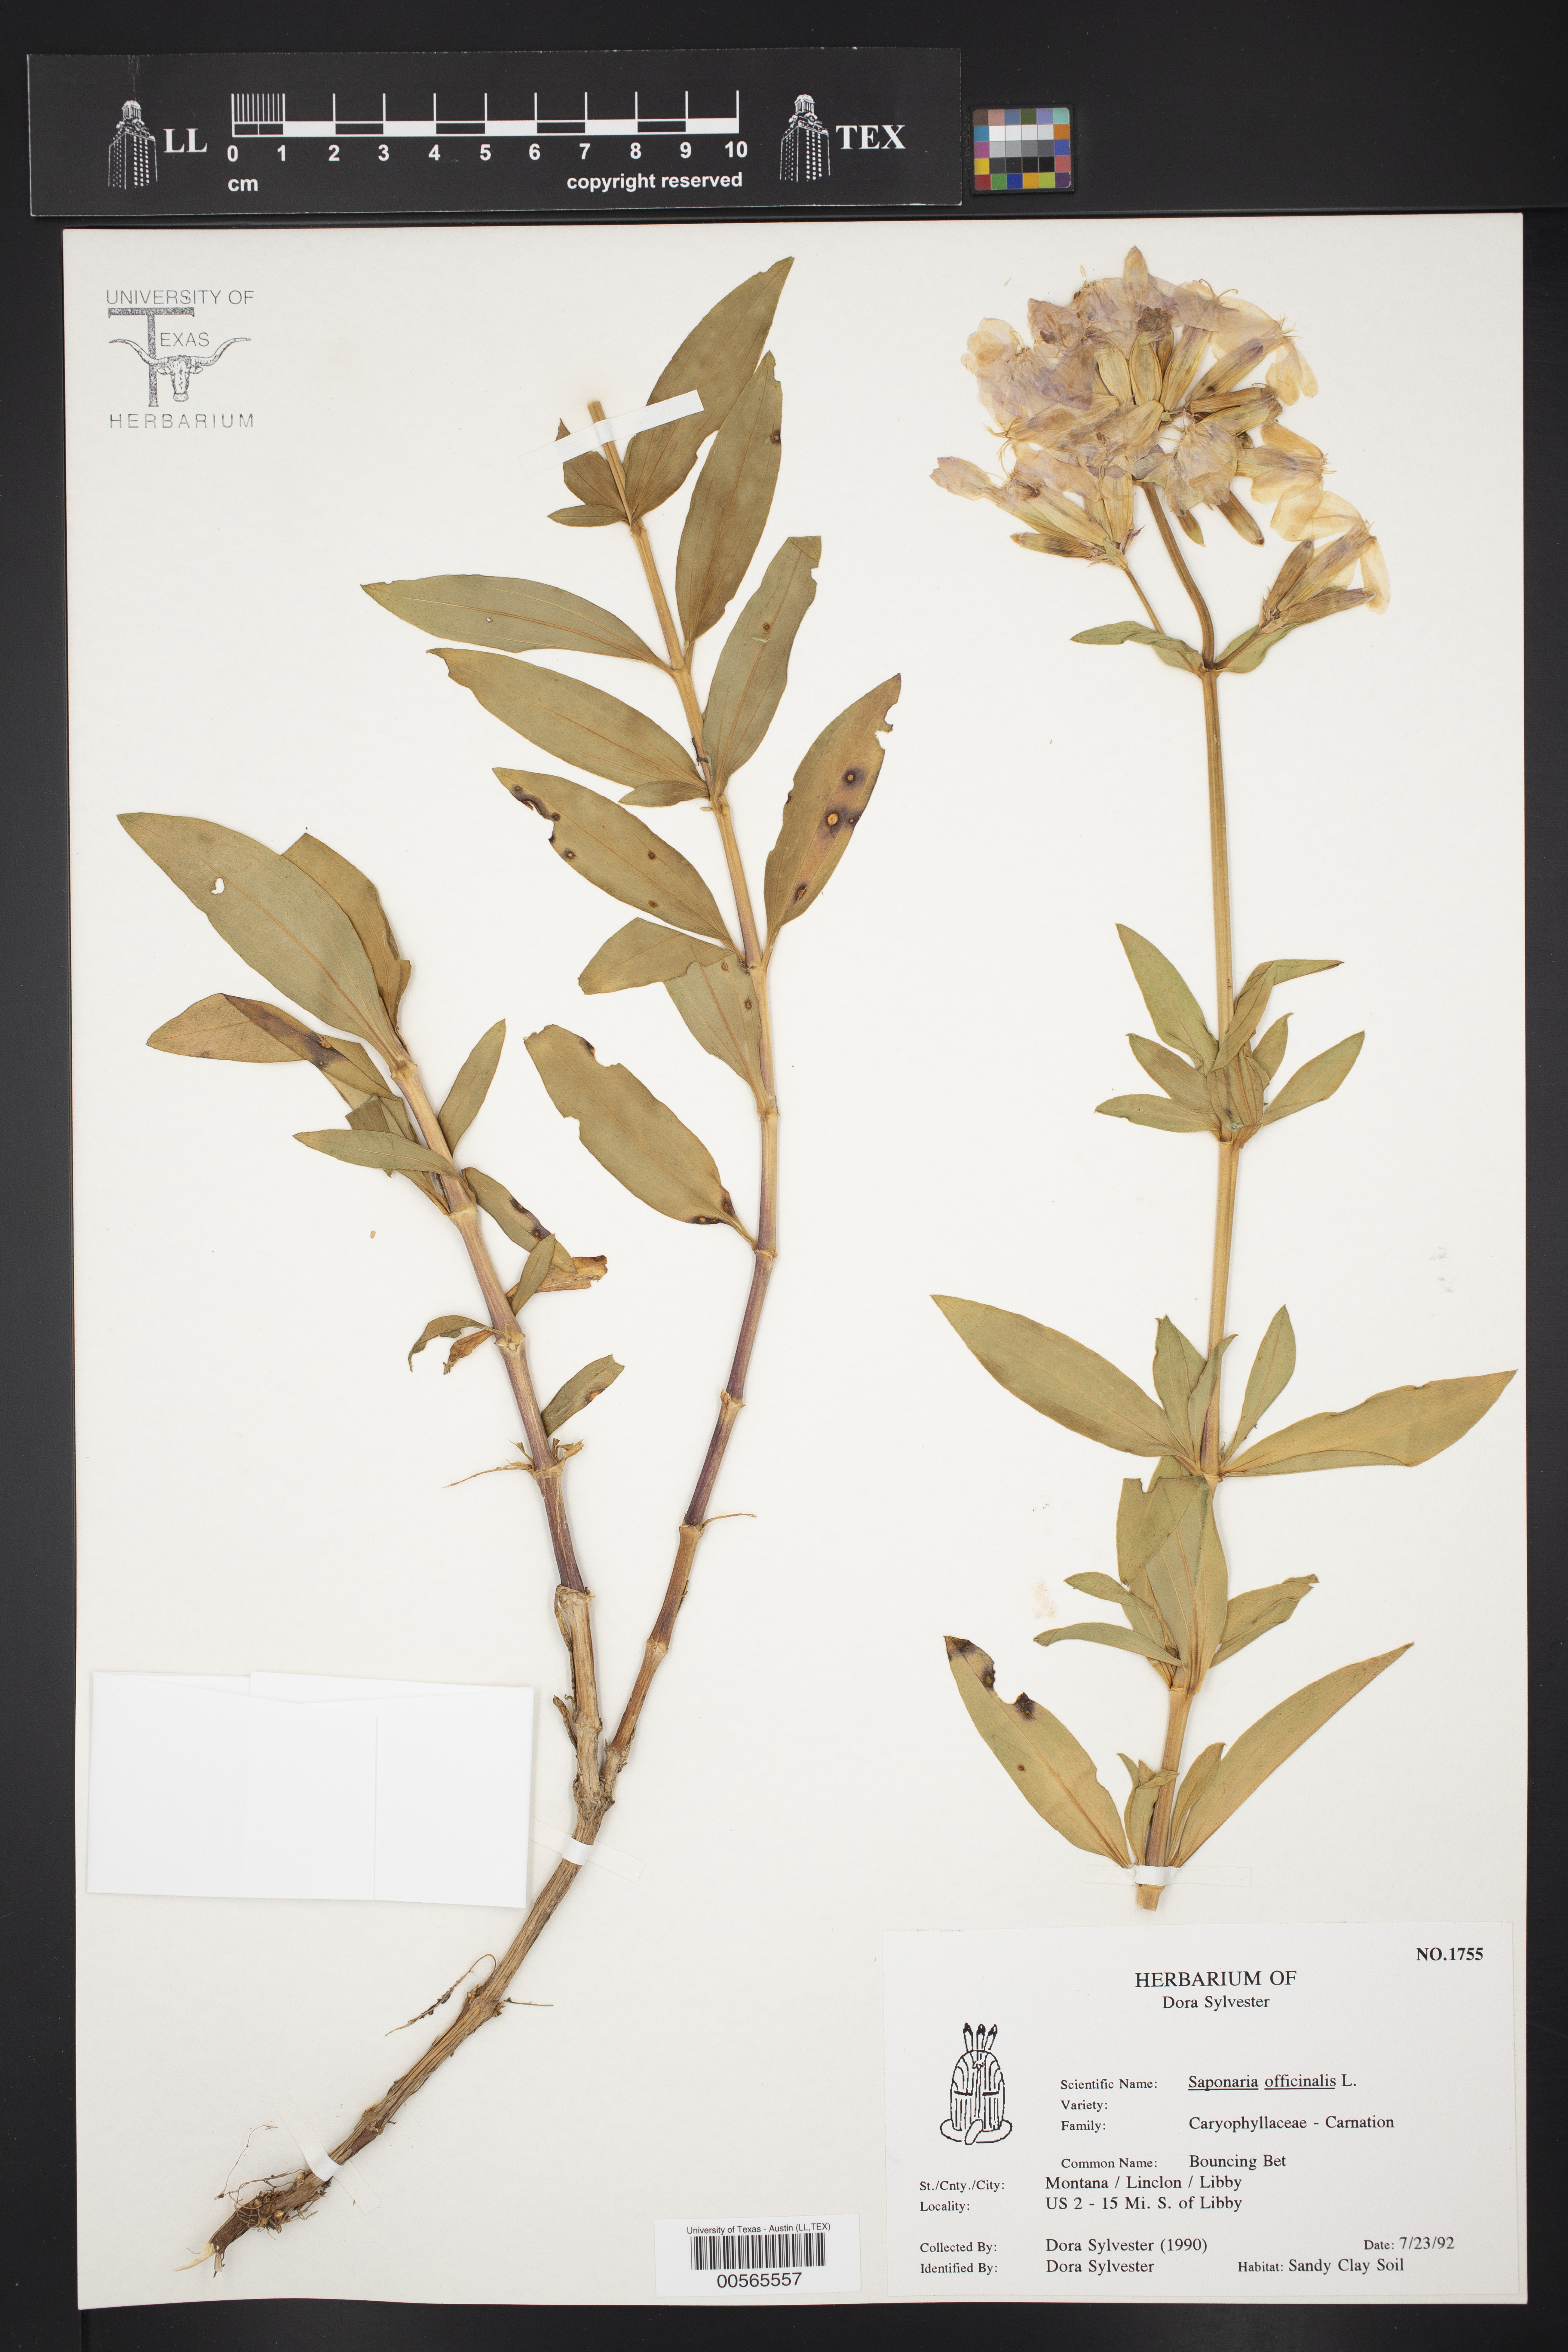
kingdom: Plantae
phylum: Tracheophyta
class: Magnoliopsida
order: Caryophyllales
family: Caryophyllaceae
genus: Saponaria
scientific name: Saponaria officinalis
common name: Soapwort
